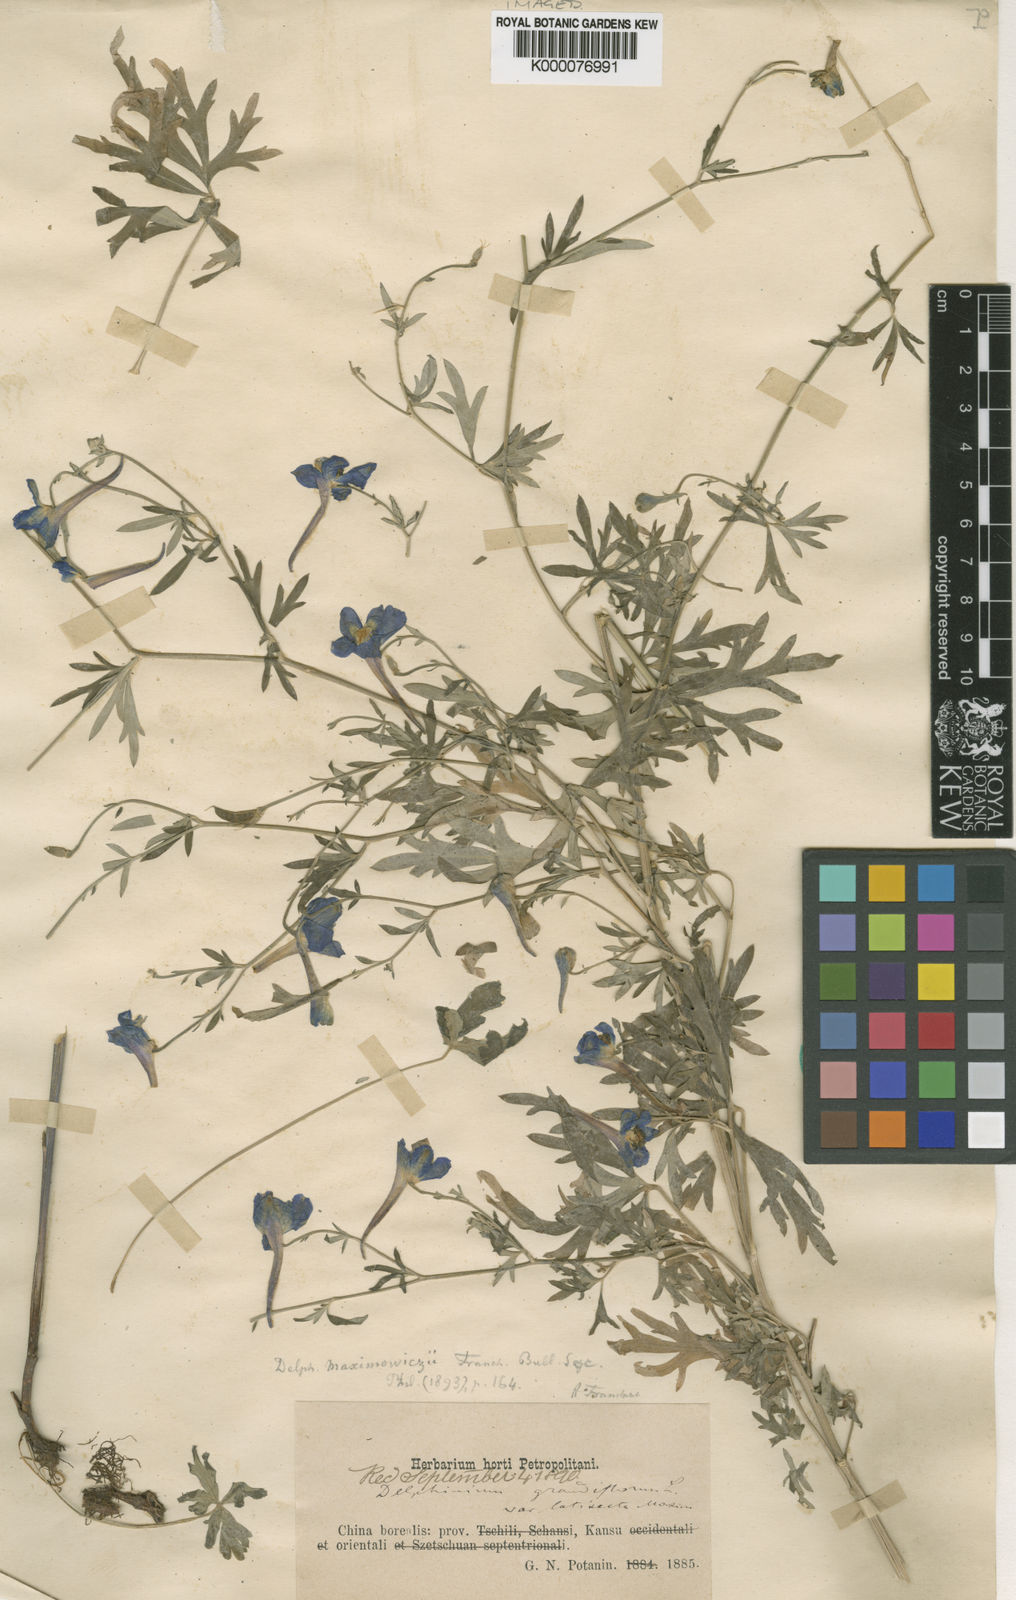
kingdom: Plantae
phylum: Tracheophyta
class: Magnoliopsida
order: Ranunculales
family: Ranunculaceae
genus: Delphinium
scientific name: Delphinium maximowiczii
